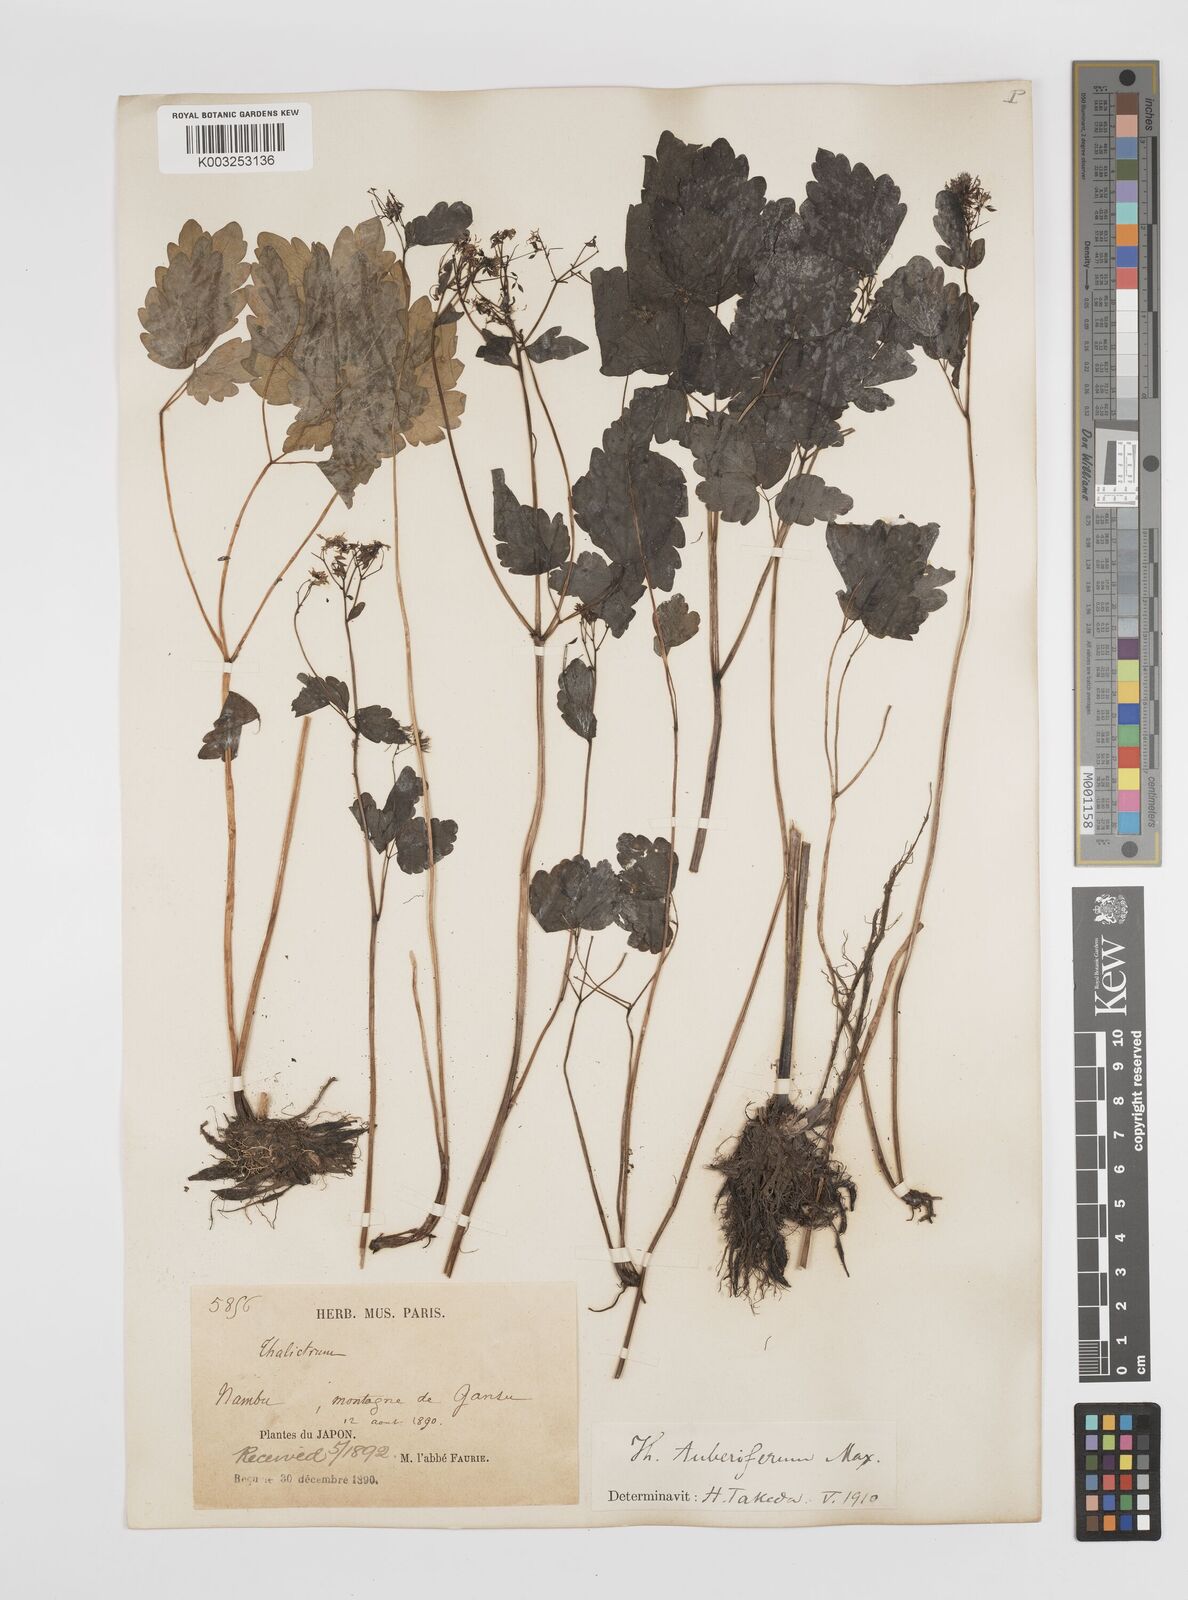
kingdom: Plantae
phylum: Tracheophyta
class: Magnoliopsida
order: Ranunculales
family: Ranunculaceae
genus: Thalictrum
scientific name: Thalictrum tuberiferum
